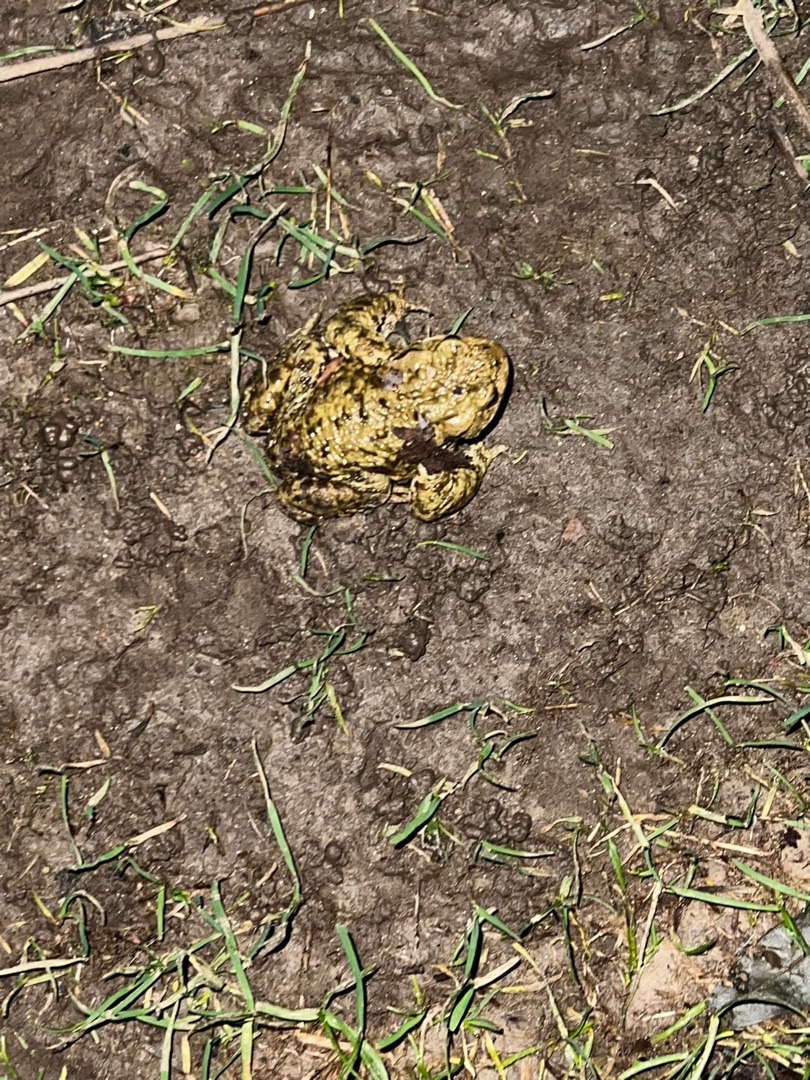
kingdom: Animalia
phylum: Chordata
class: Amphibia
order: Anura
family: Bufonidae
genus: Bufo
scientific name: Bufo bufo
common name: Skrubtudse
